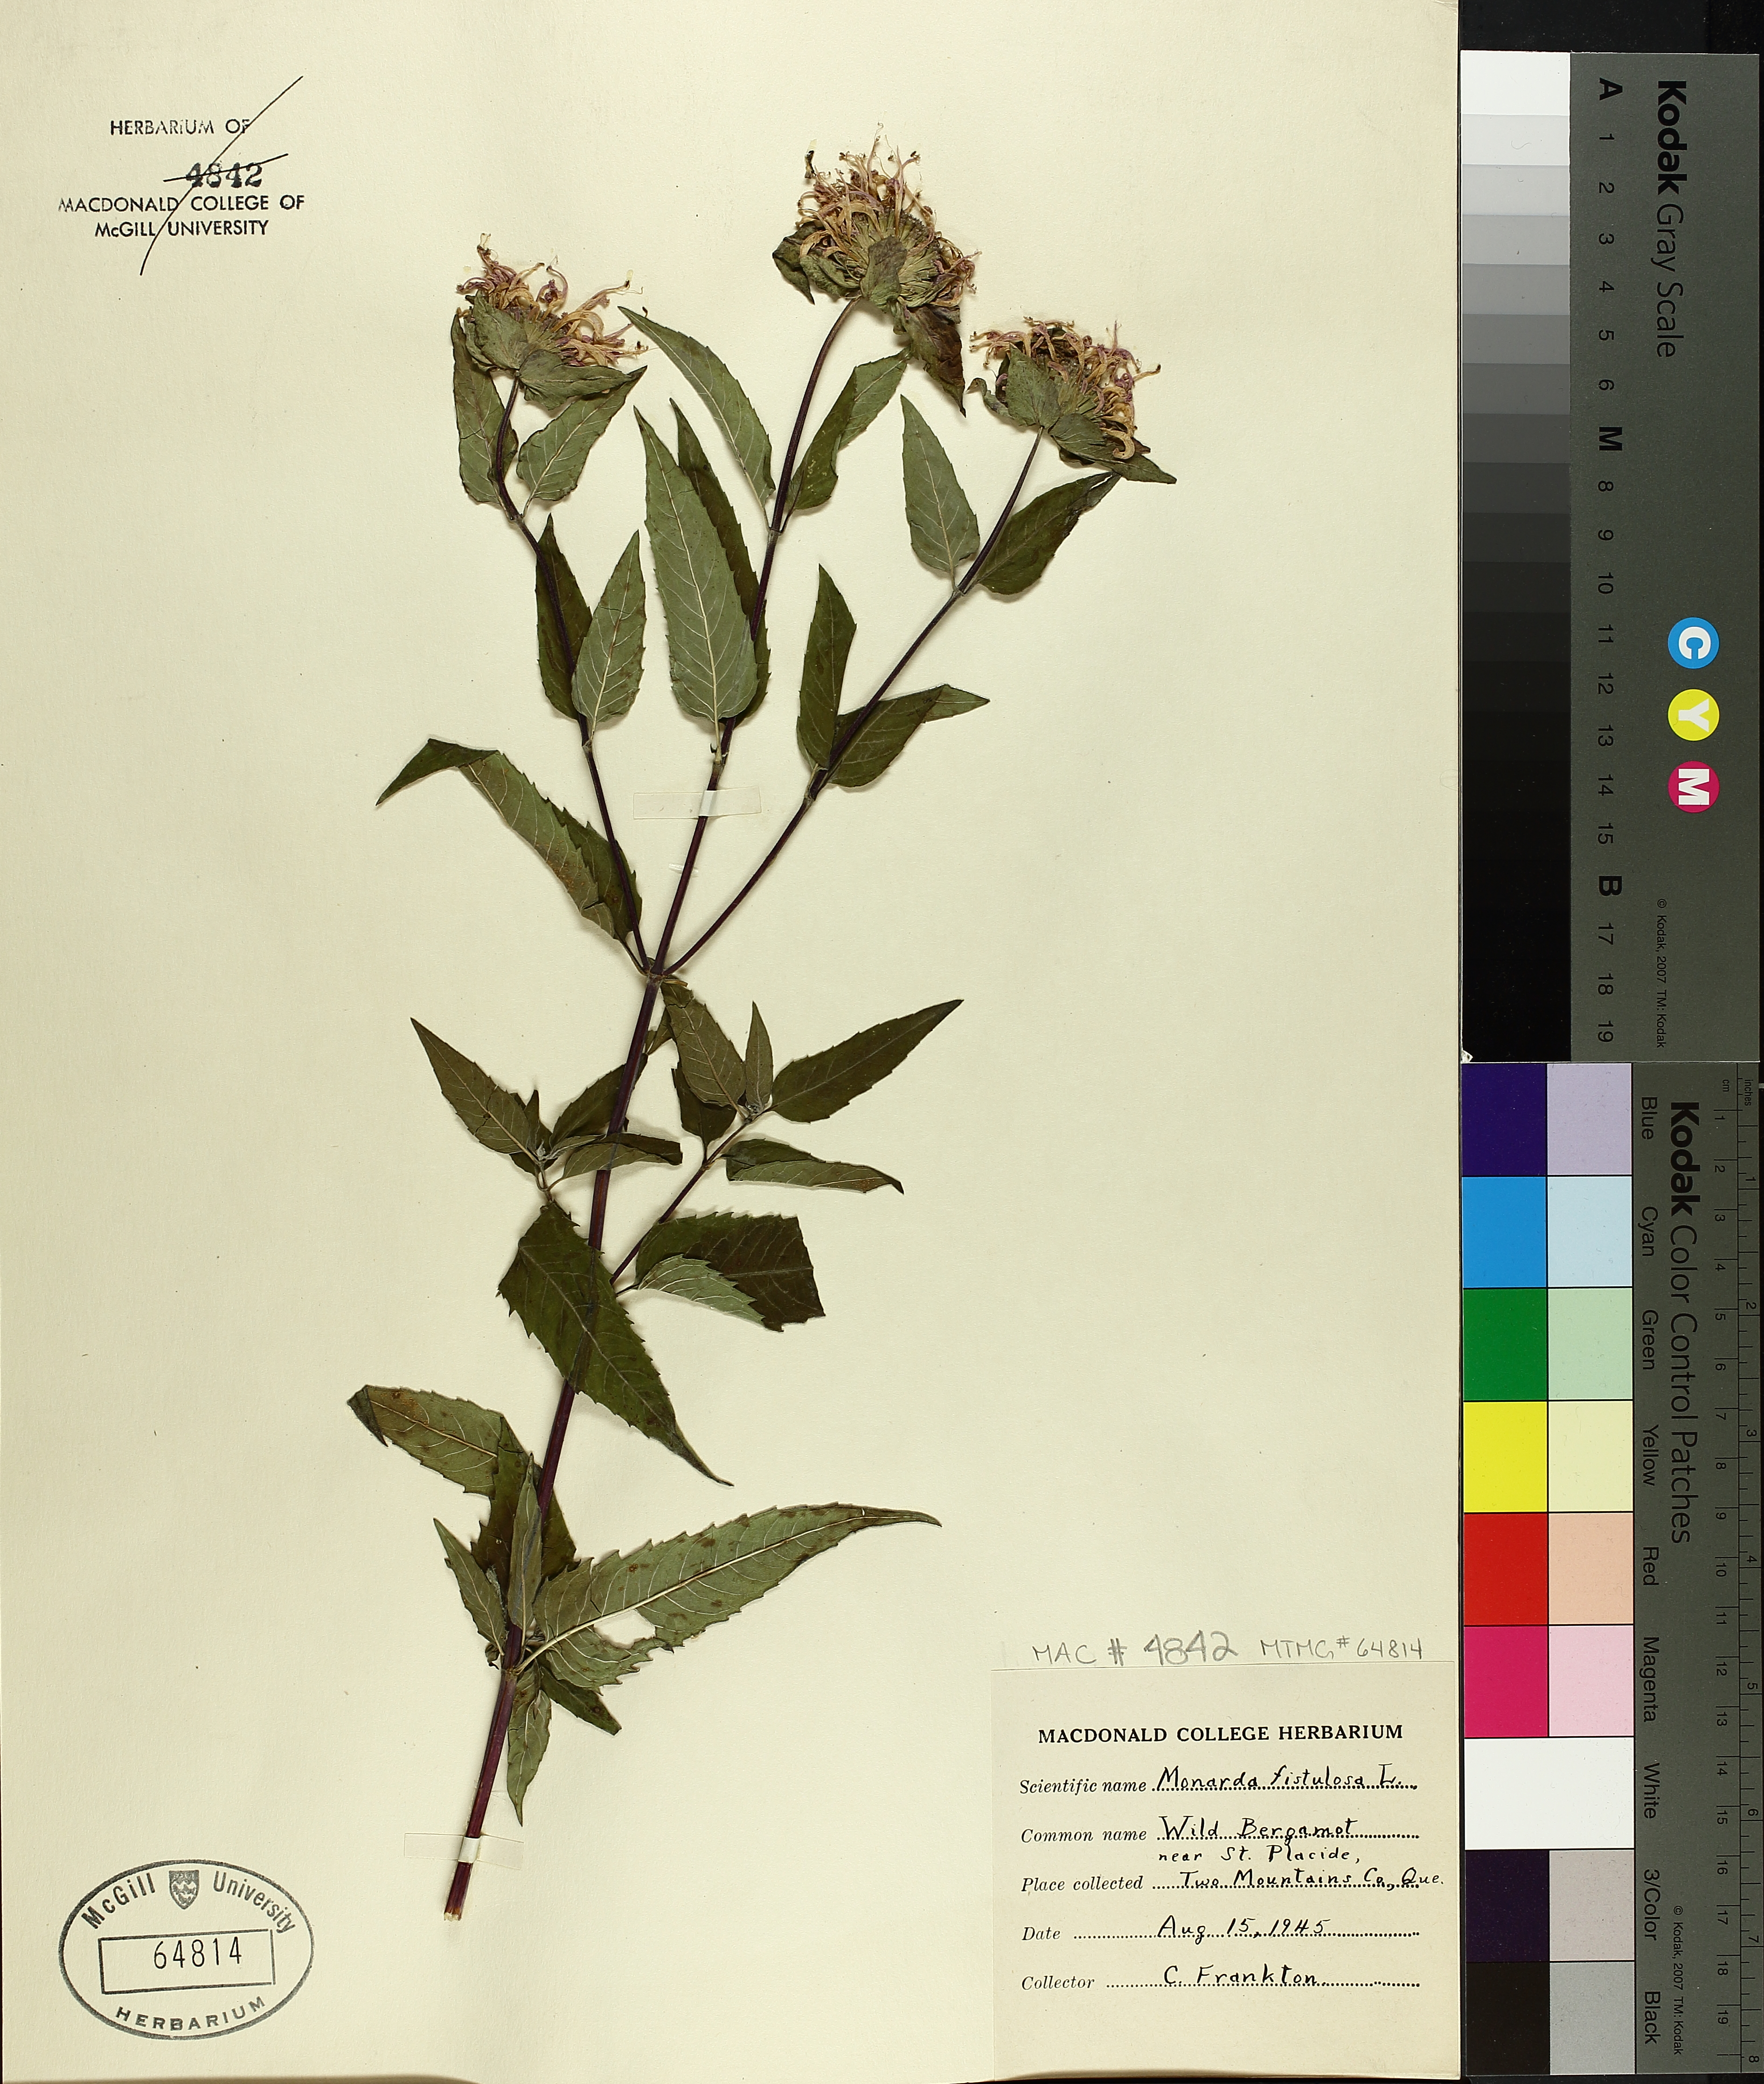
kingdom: Plantae
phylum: Tracheophyta
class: Magnoliopsida
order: Lamiales
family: Lamiaceae
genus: Monarda
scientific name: Monarda fistulosa
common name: Purple beebalm
